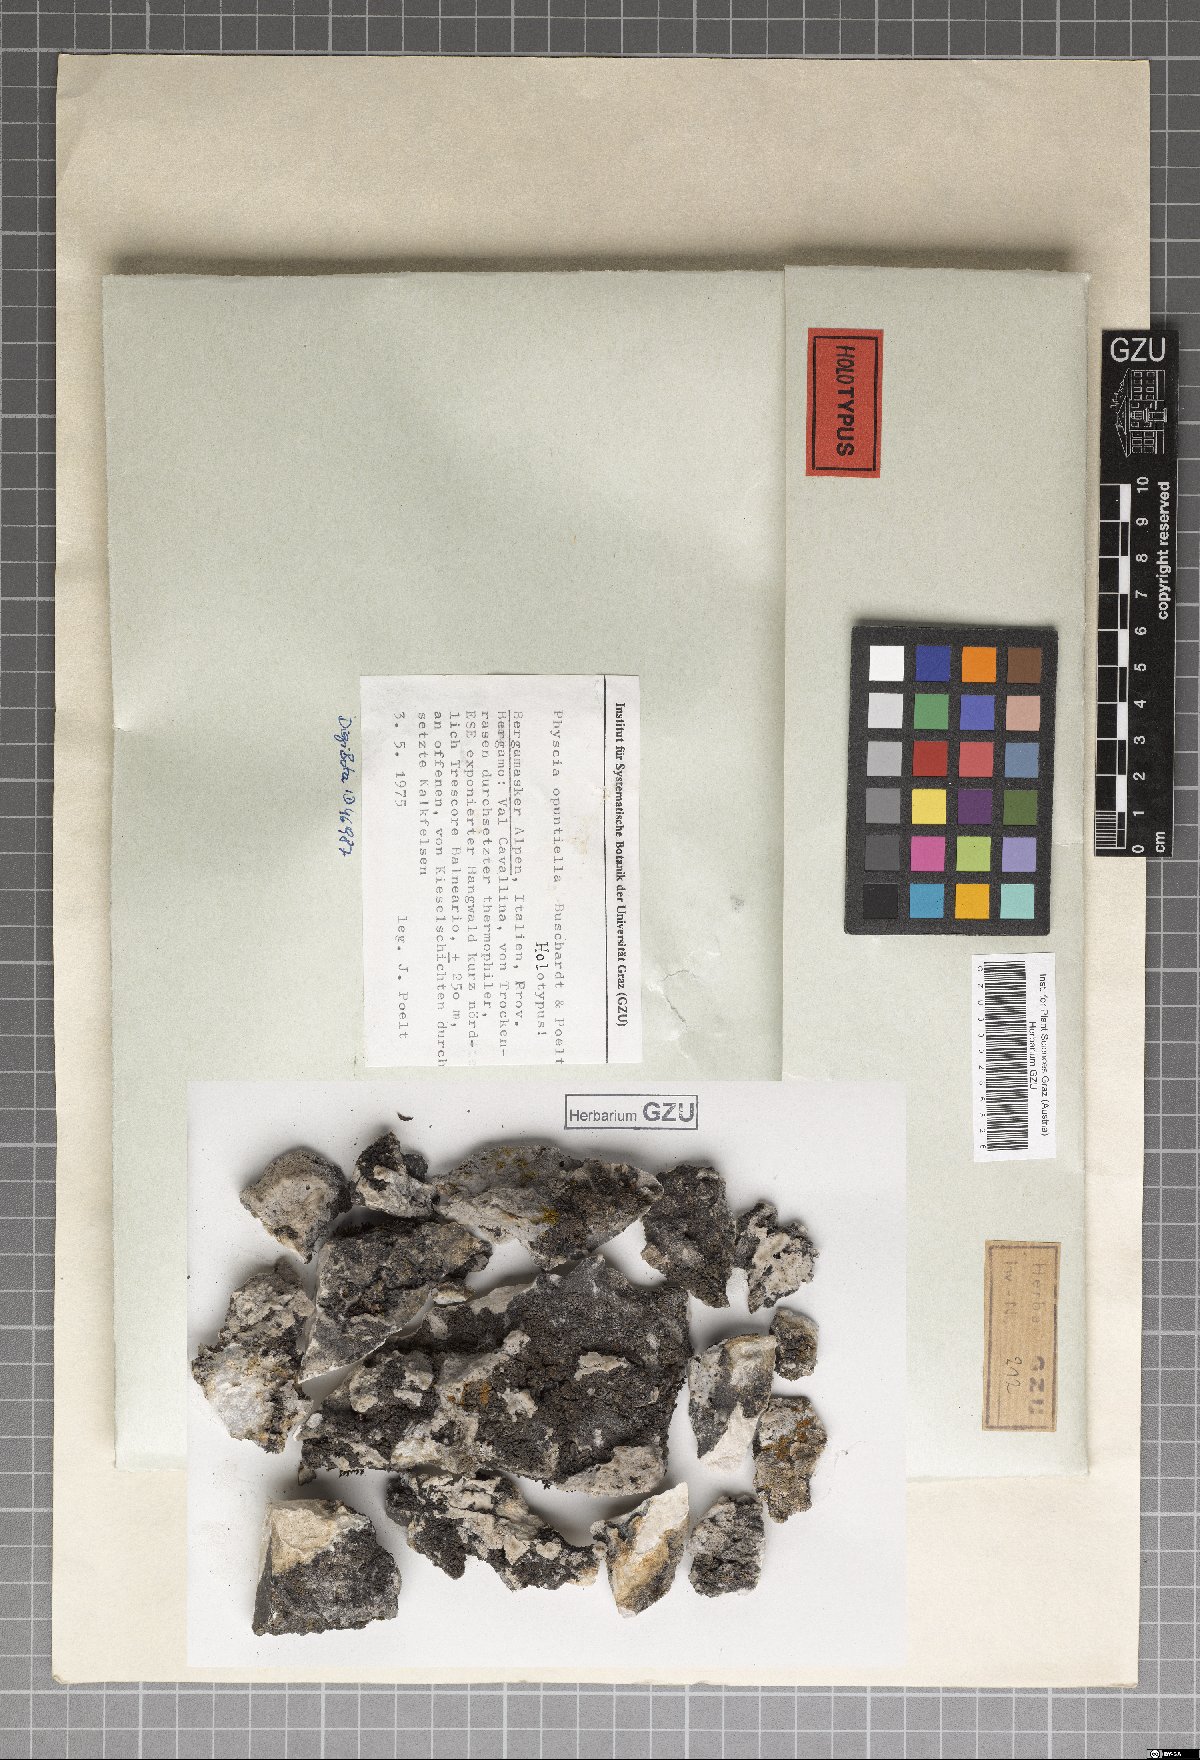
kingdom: Fungi
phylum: Ascomycota
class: Eurotiomycetes
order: Verrucariales
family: Verrucariaceae
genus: Agonimia
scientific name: Agonimia opuntiella
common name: Cactus lichen
